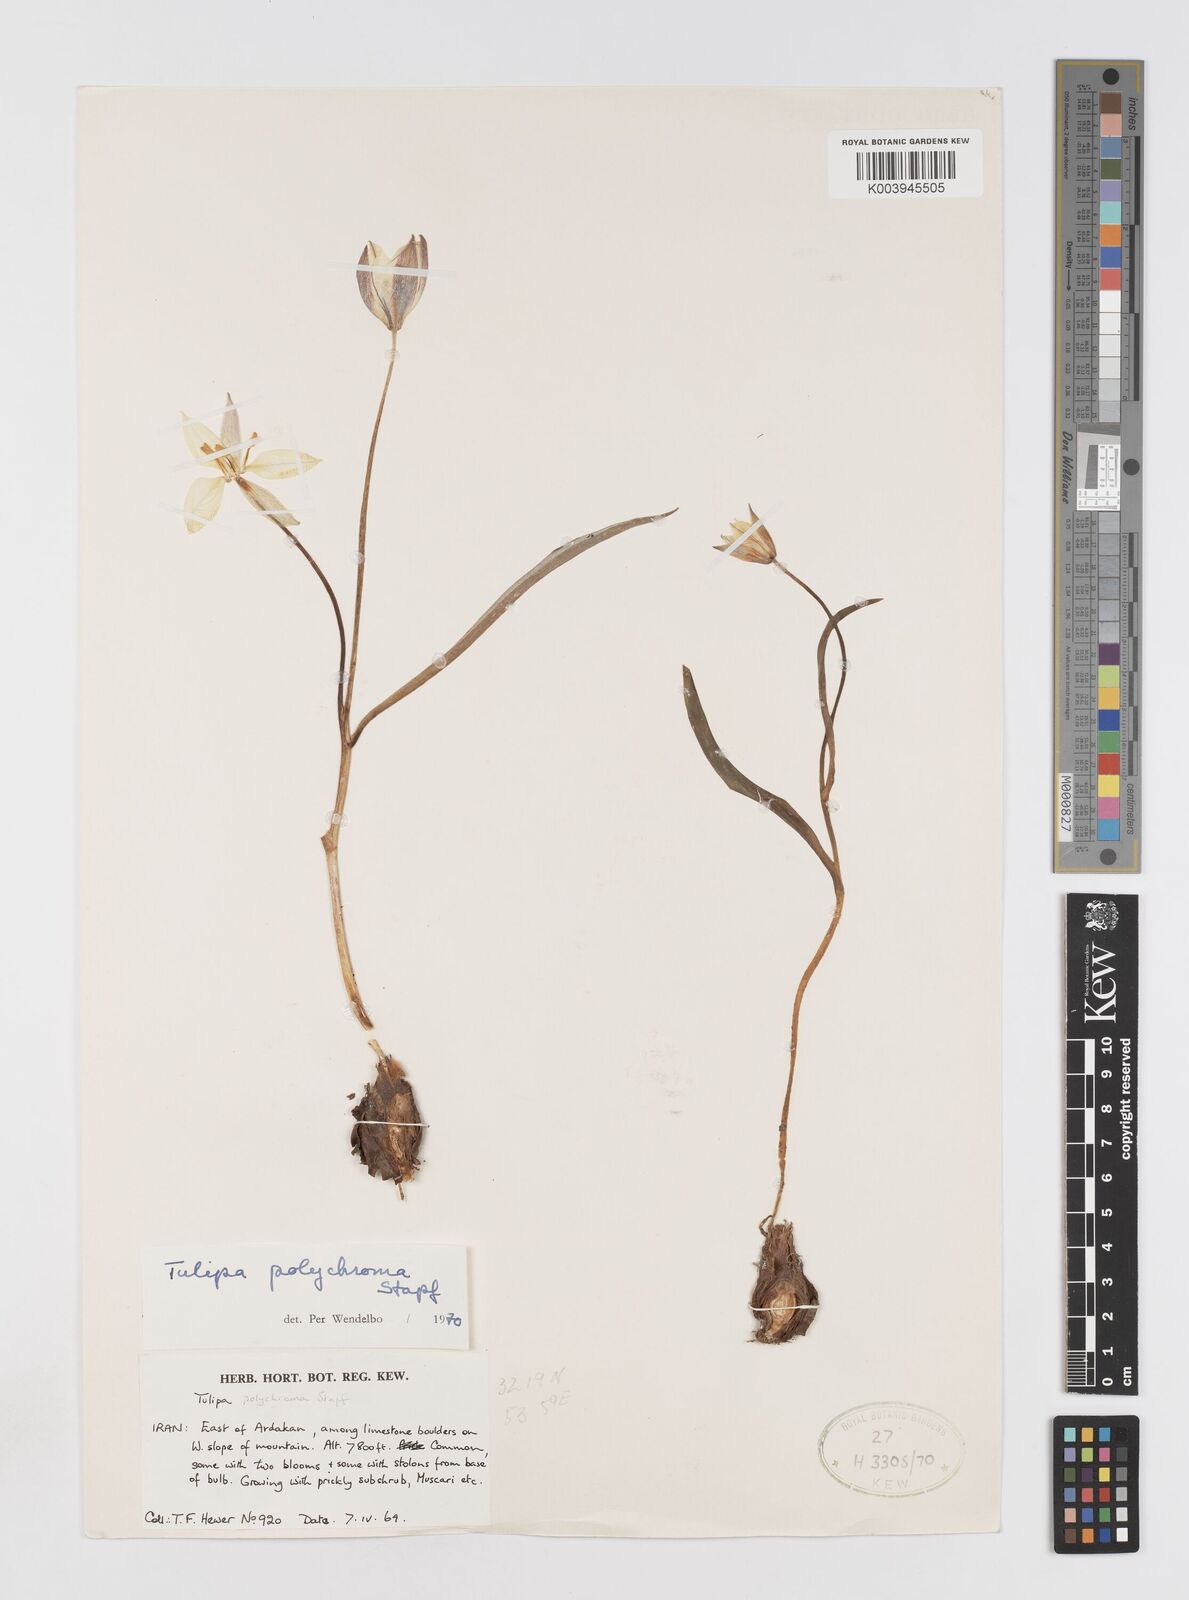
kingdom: Plantae
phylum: Tracheophyta
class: Liliopsida
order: Liliales
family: Liliaceae
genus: Tulipa
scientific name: Tulipa biflora
